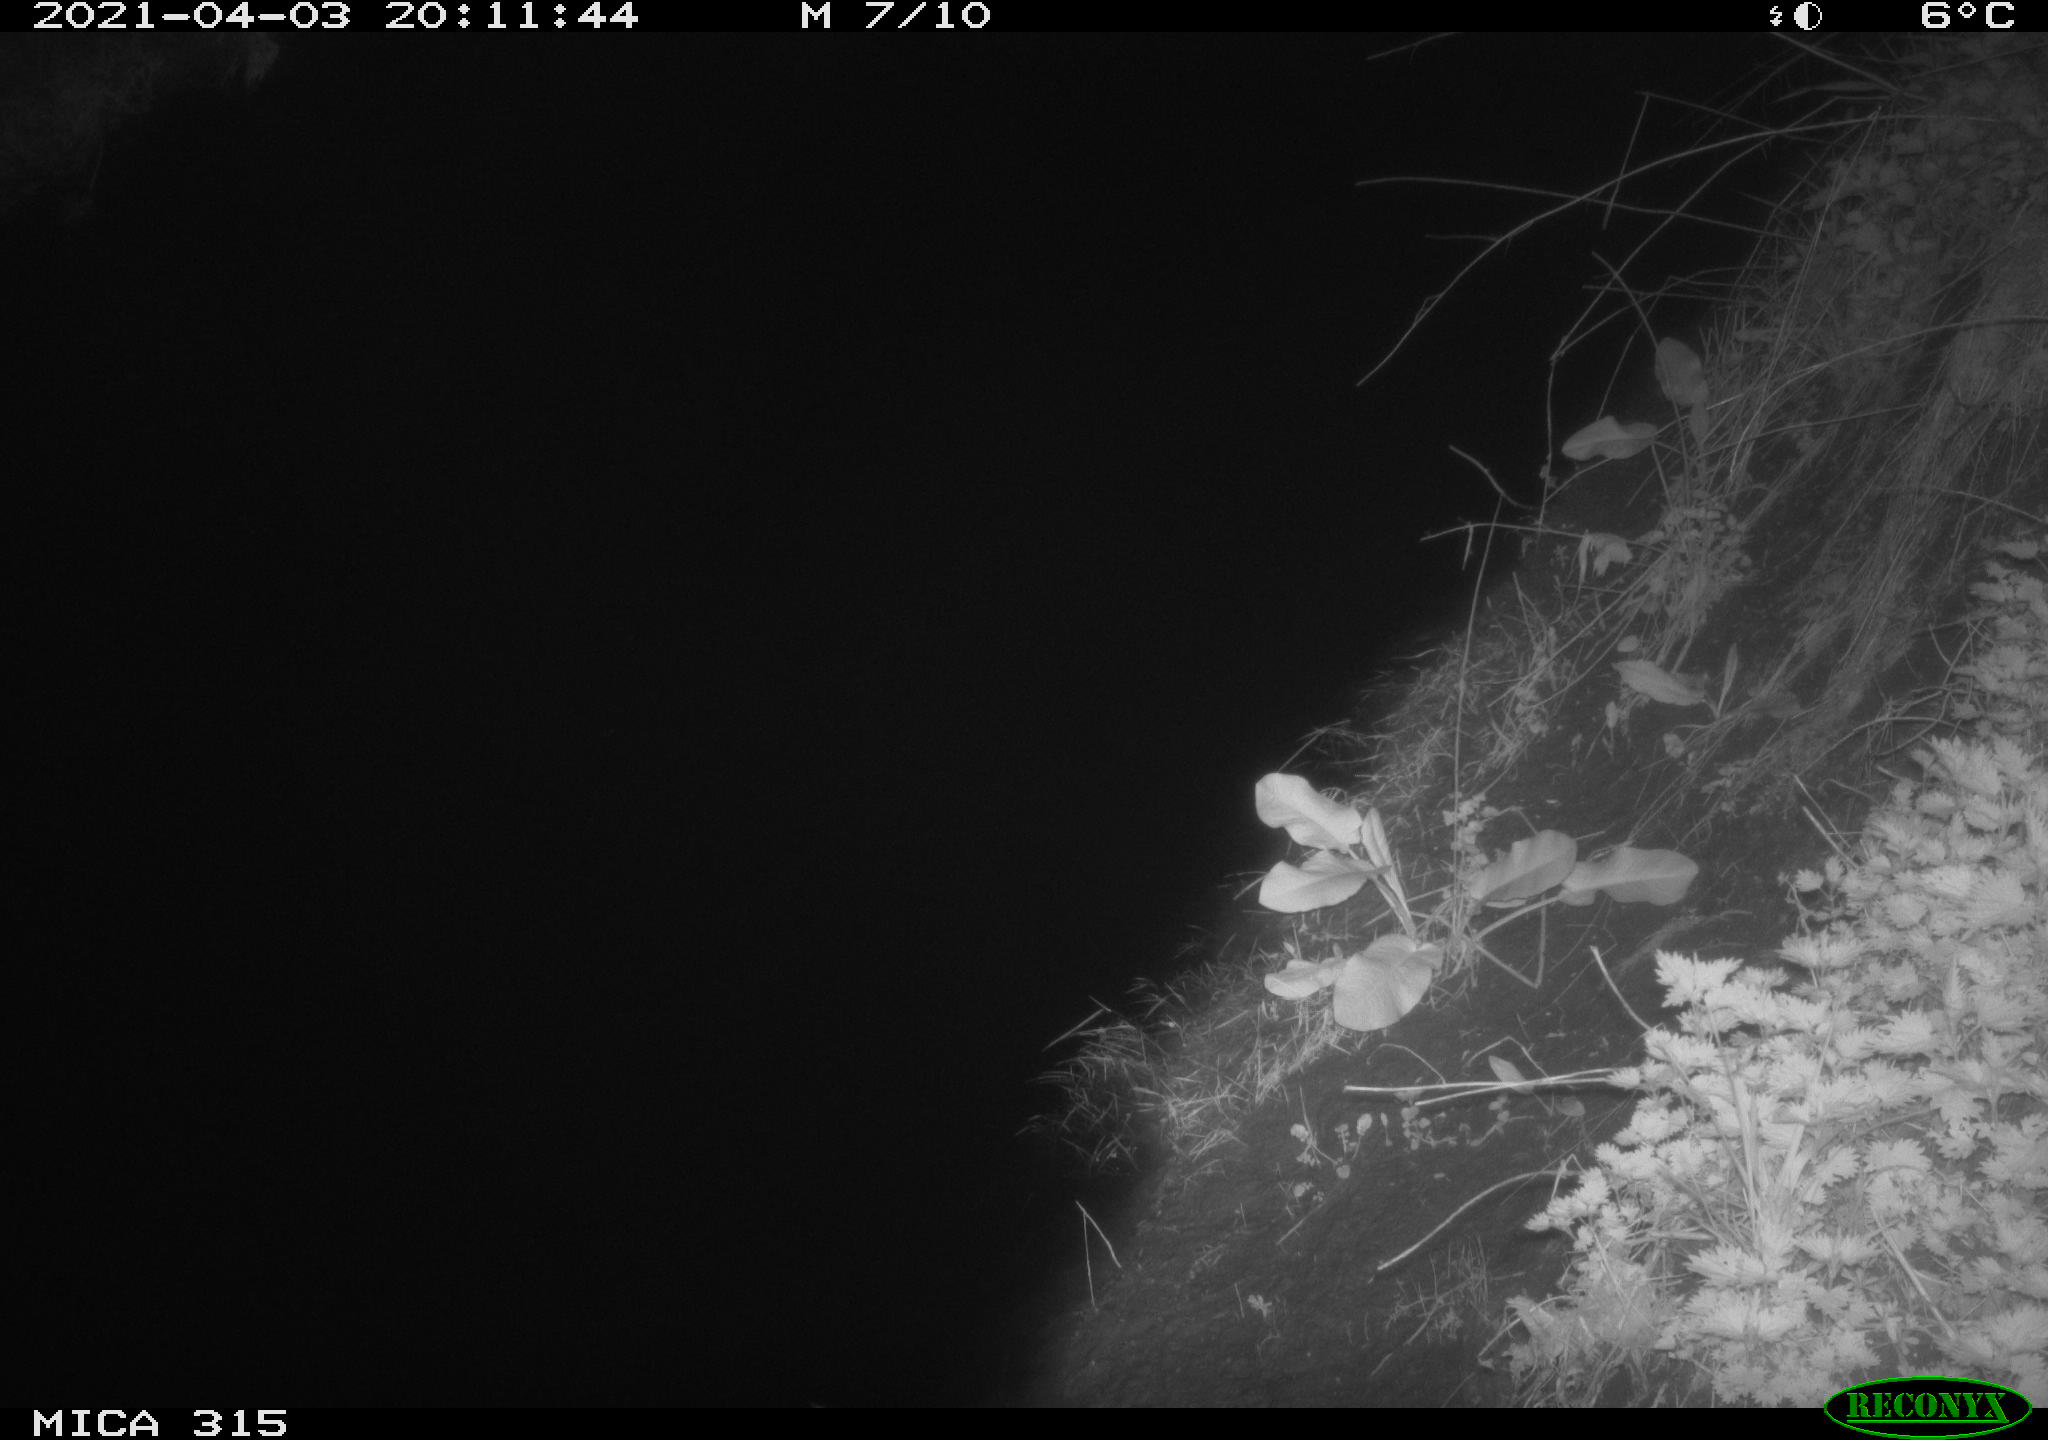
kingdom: Animalia
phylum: Chordata
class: Aves
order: Anseriformes
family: Anatidae
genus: Anas
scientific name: Anas platyrhynchos
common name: Mallard
